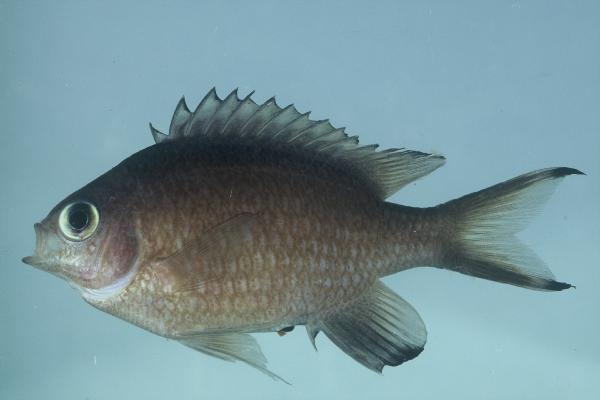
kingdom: Animalia
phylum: Chordata
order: Perciformes
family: Pomacentridae
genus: Chromis
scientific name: Chromis nigroanalis
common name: Kenyan chromis
